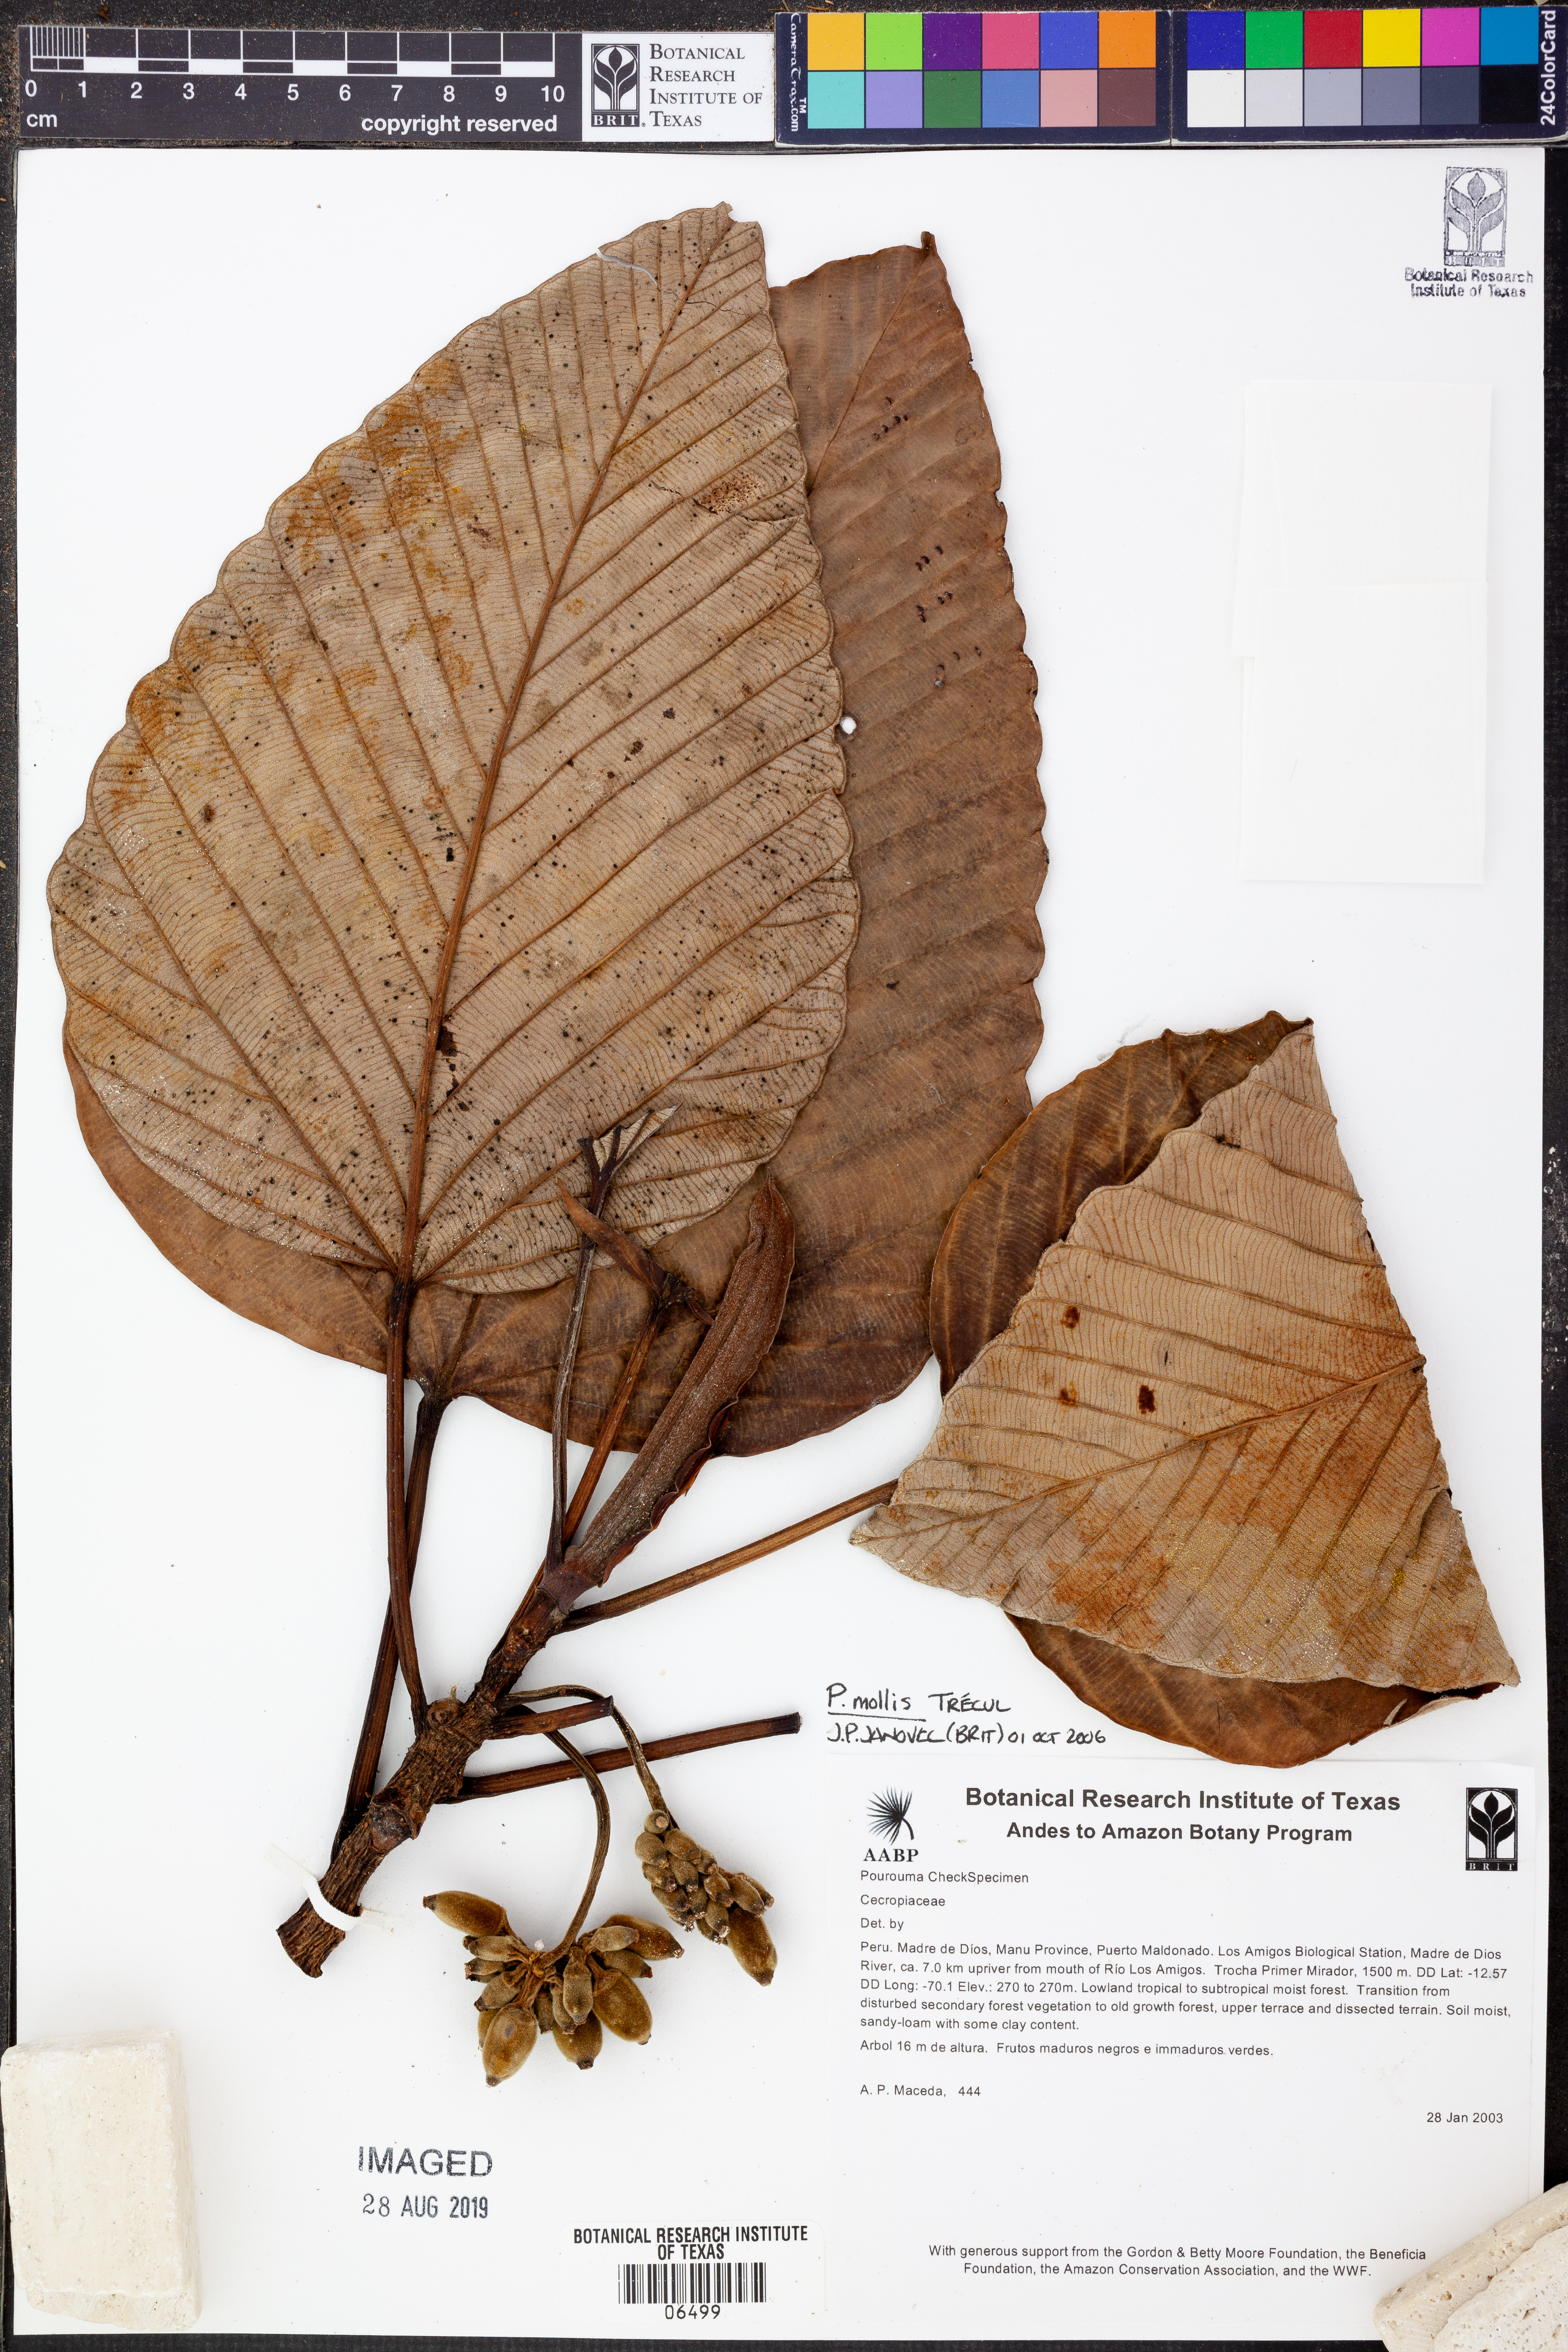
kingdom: Plantae
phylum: Tracheophyta
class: Magnoliopsida
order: Rosales
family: Urticaceae
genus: Pourouma
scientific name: Pourouma
